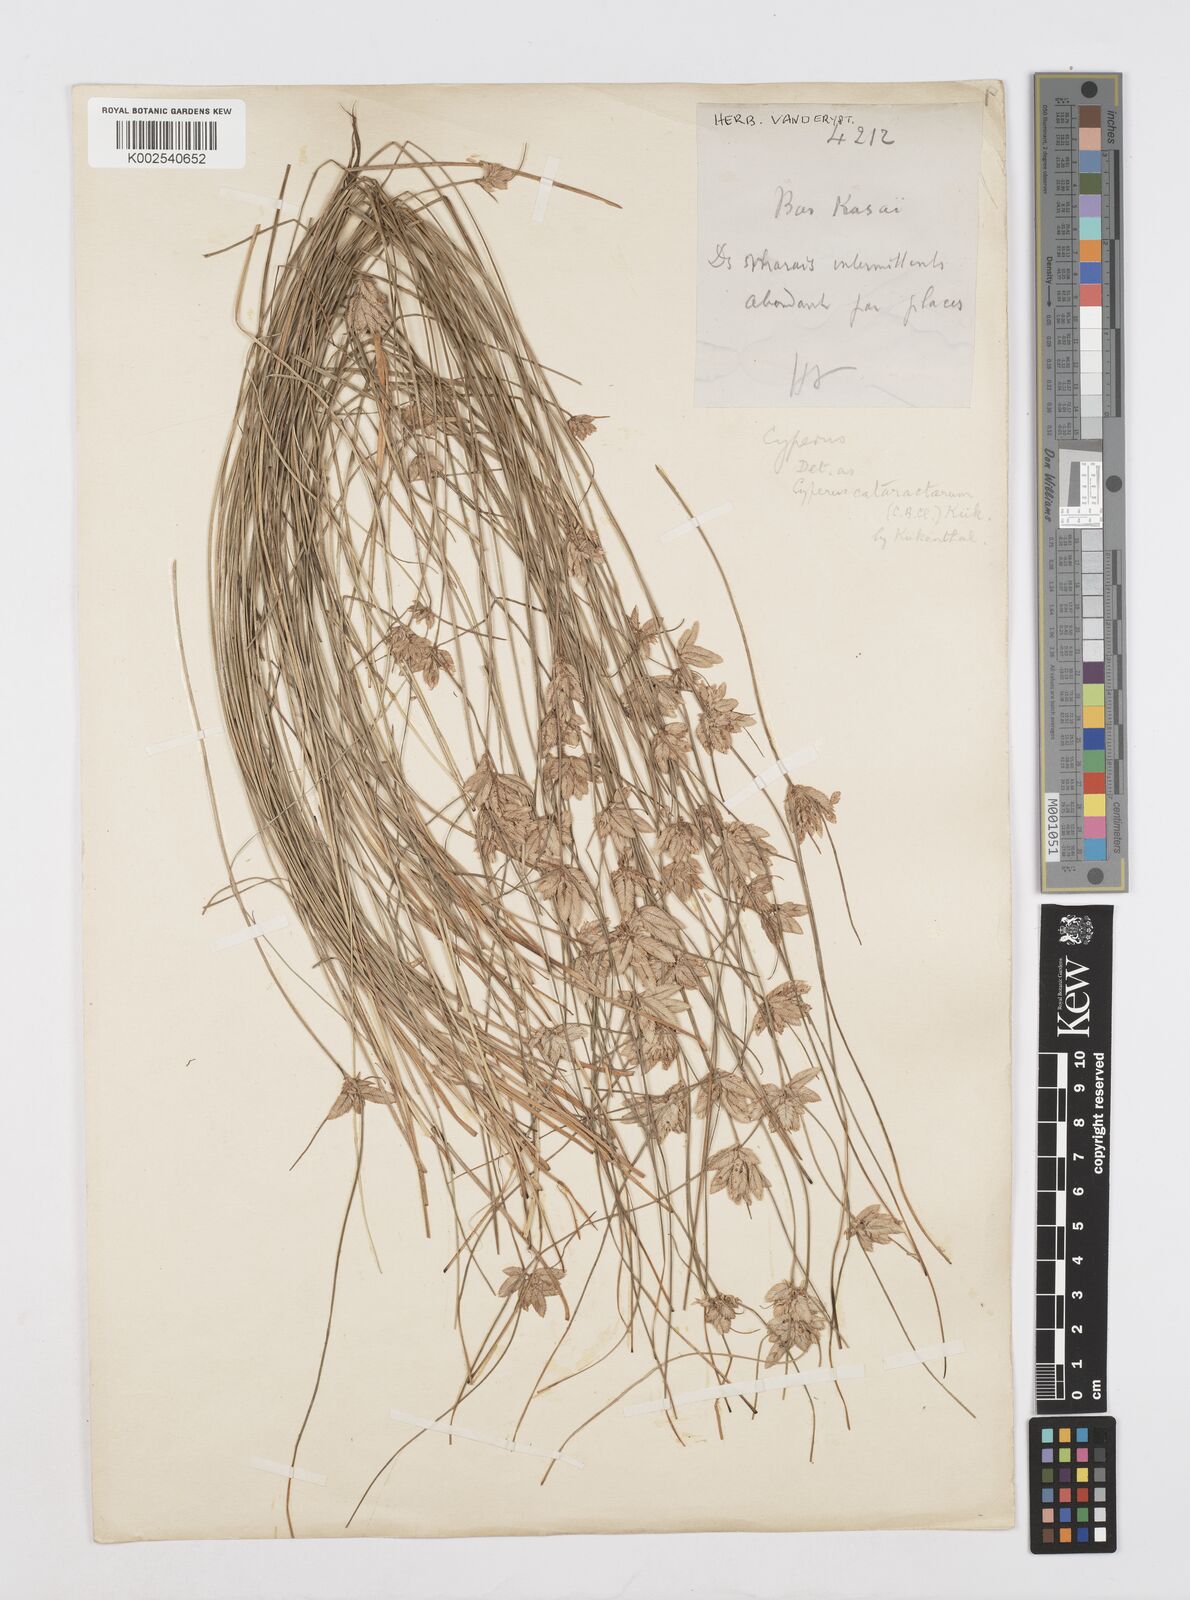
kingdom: Plantae
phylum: Tracheophyta
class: Liliopsida
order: Poales
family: Cyperaceae
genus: Cyperus
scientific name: Cyperus scaettae
